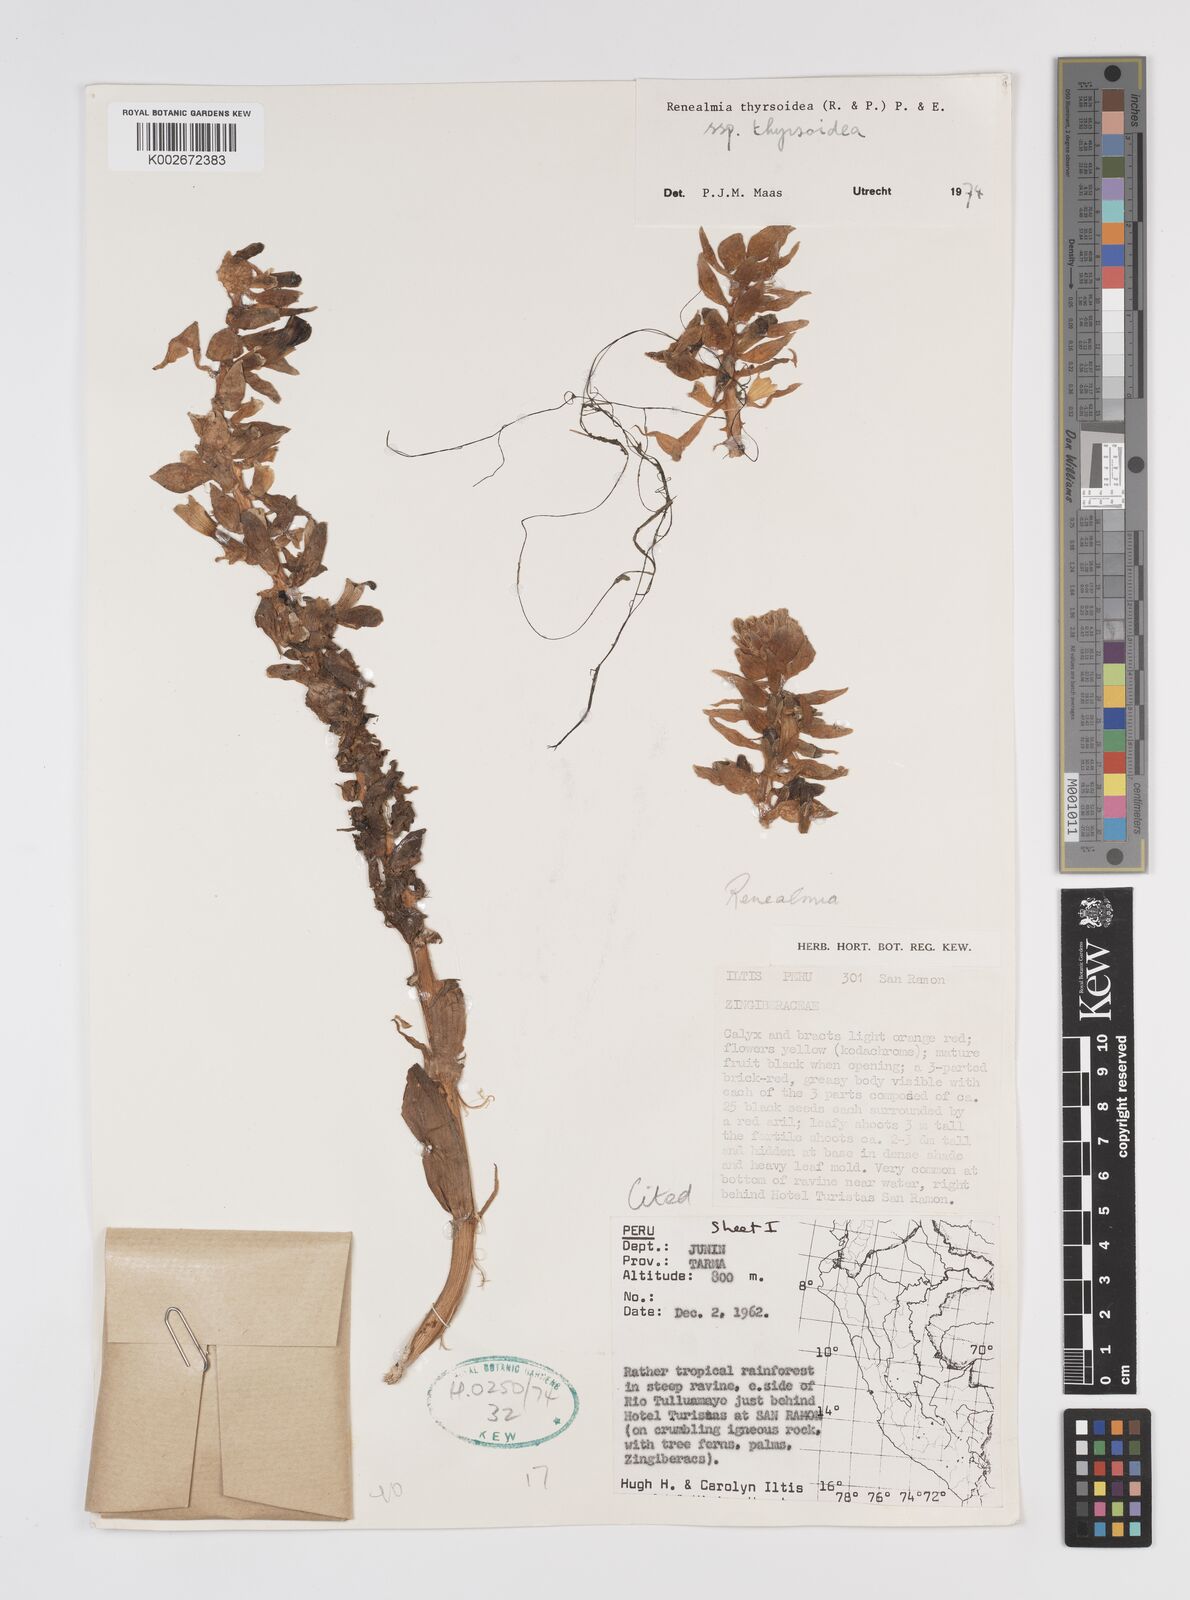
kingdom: Plantae
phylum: Tracheophyta
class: Liliopsida
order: Zingiberales
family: Zingiberaceae
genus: Renealmia
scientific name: Renealmia thyrsoidea
